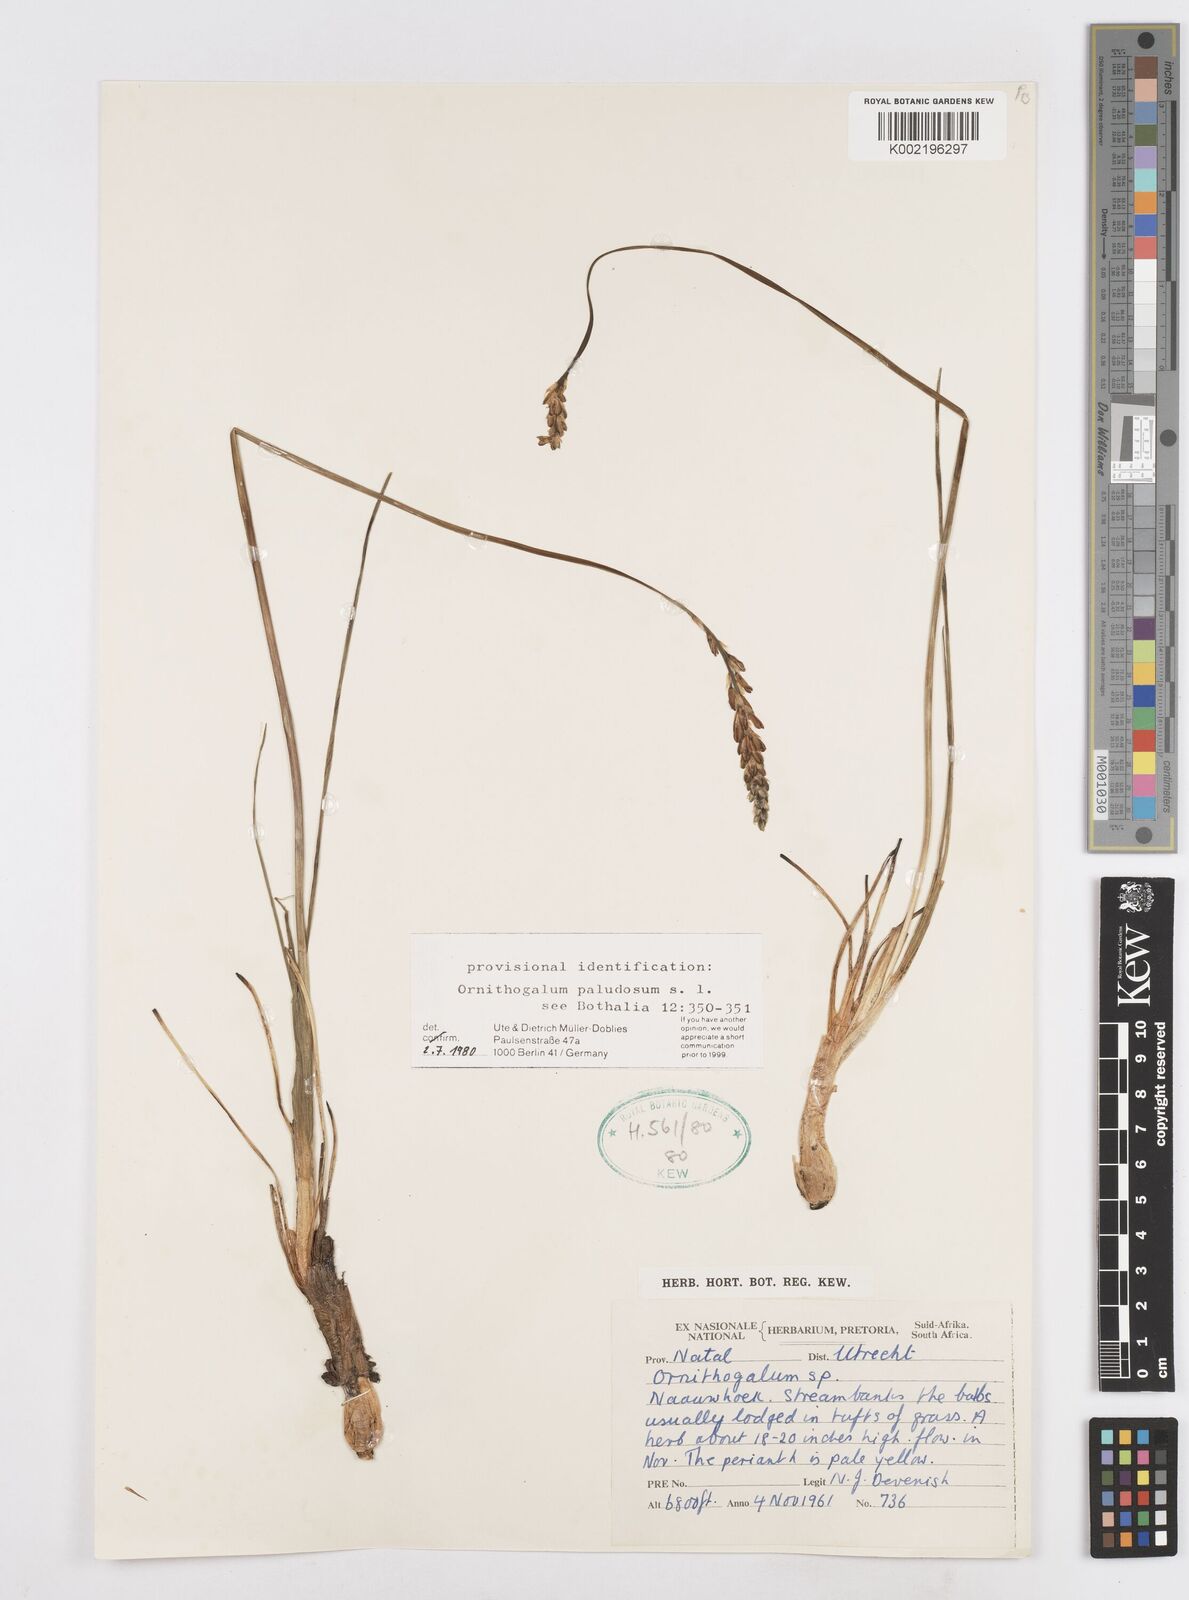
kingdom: Plantae
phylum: Tracheophyta
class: Liliopsida
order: Asparagales
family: Asparagaceae
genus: Ornithogalum
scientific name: Ornithogalum paludosum
